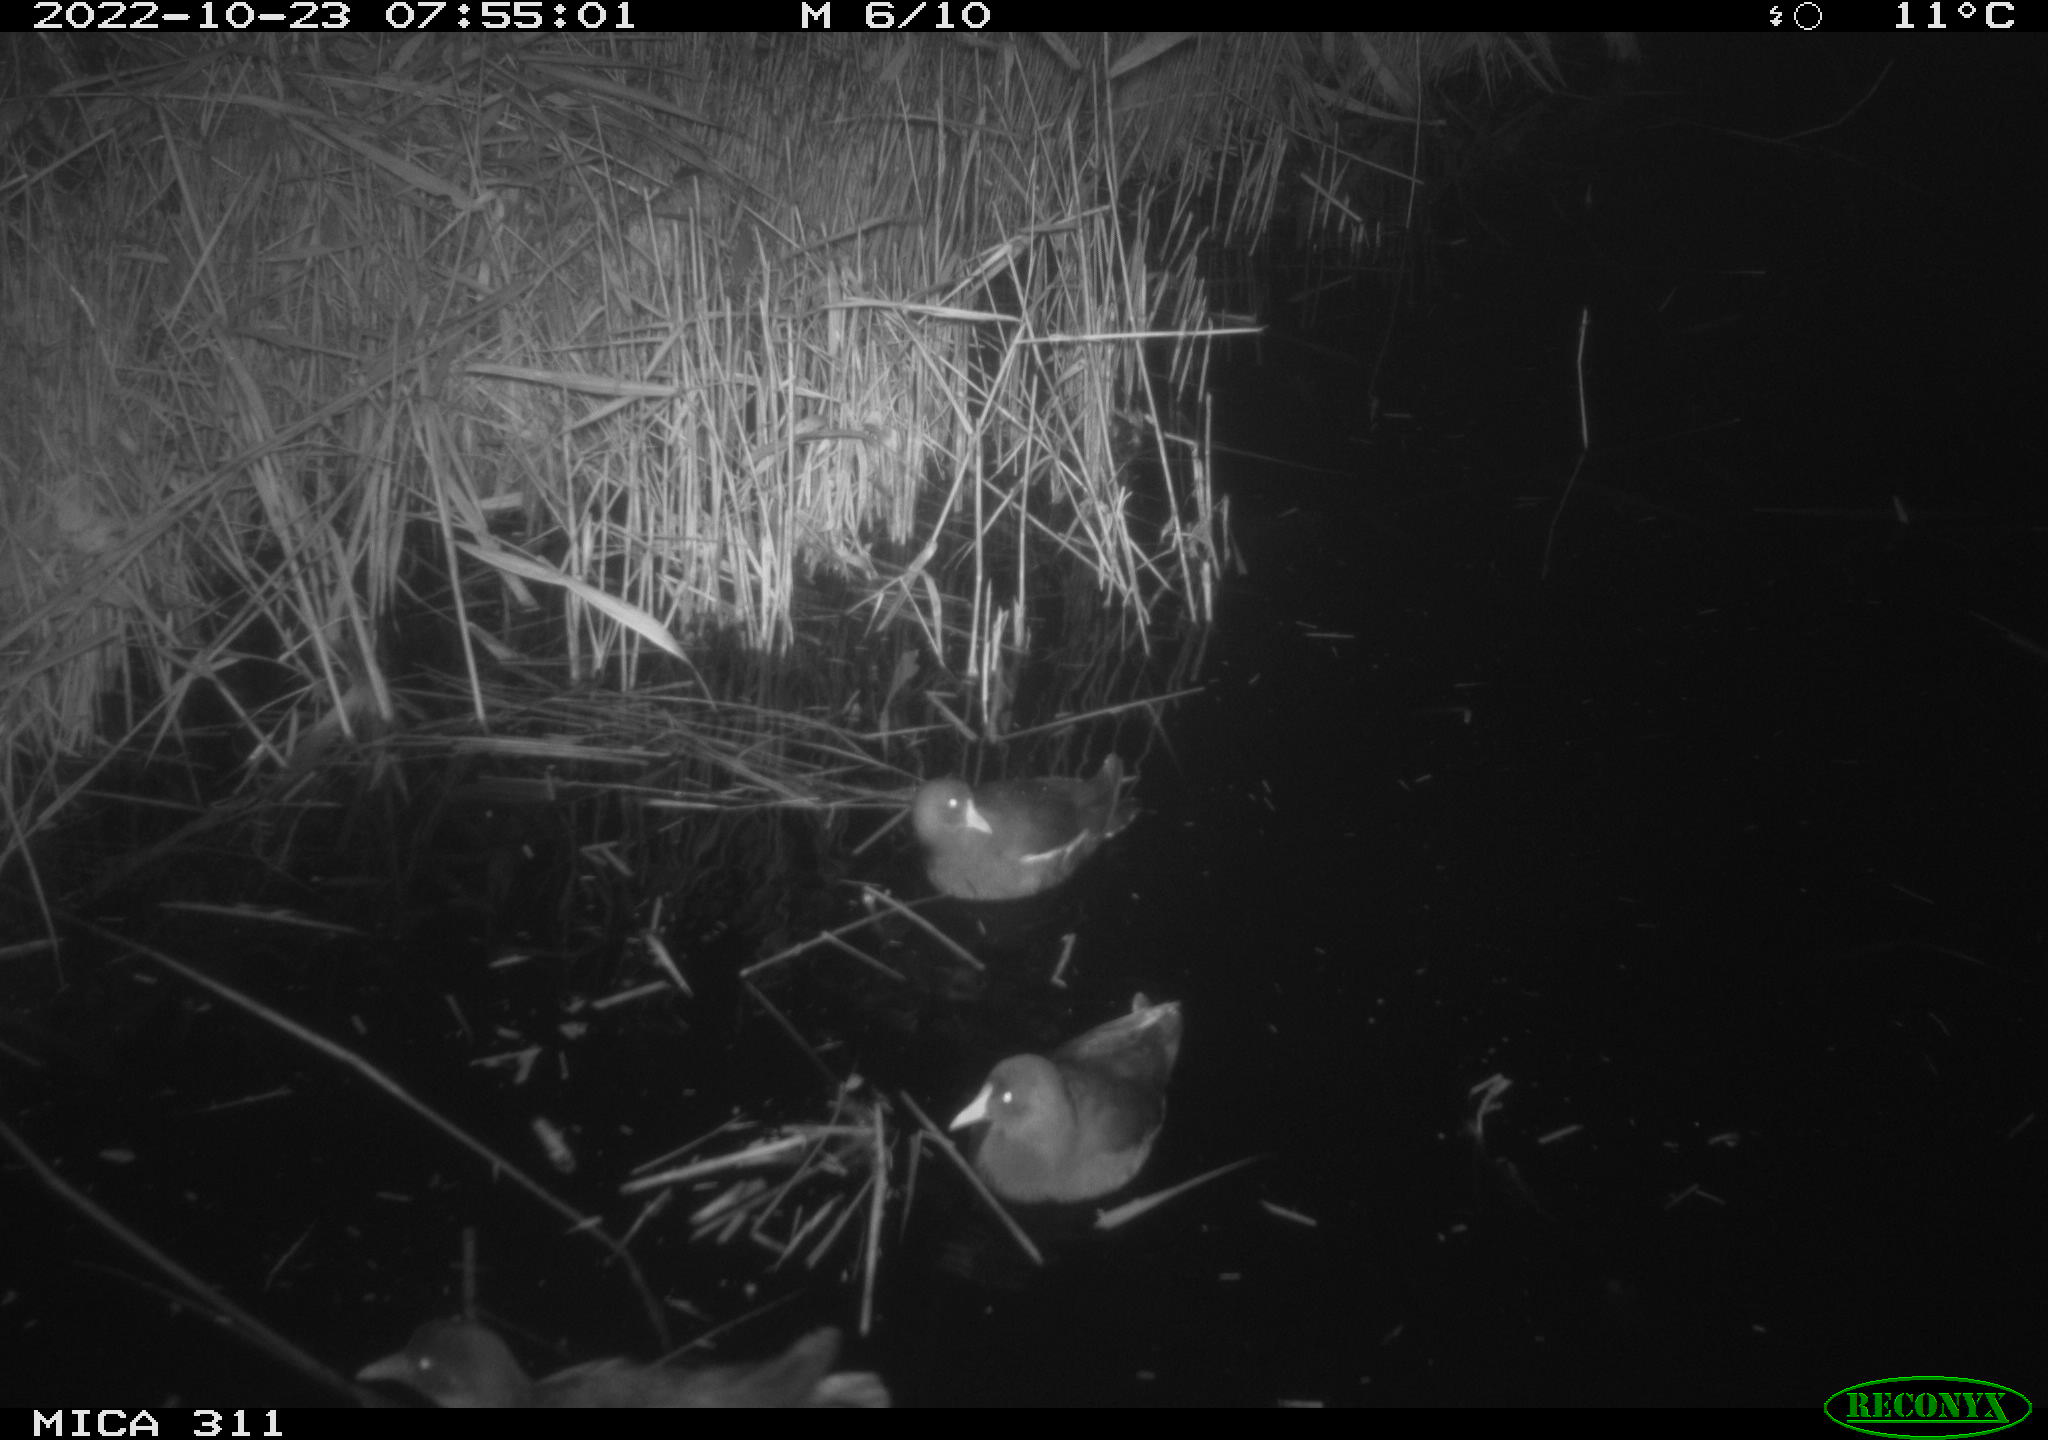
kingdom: Animalia
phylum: Chordata
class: Aves
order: Gruiformes
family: Rallidae
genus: Gallinula
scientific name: Gallinula chloropus
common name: Common moorhen
